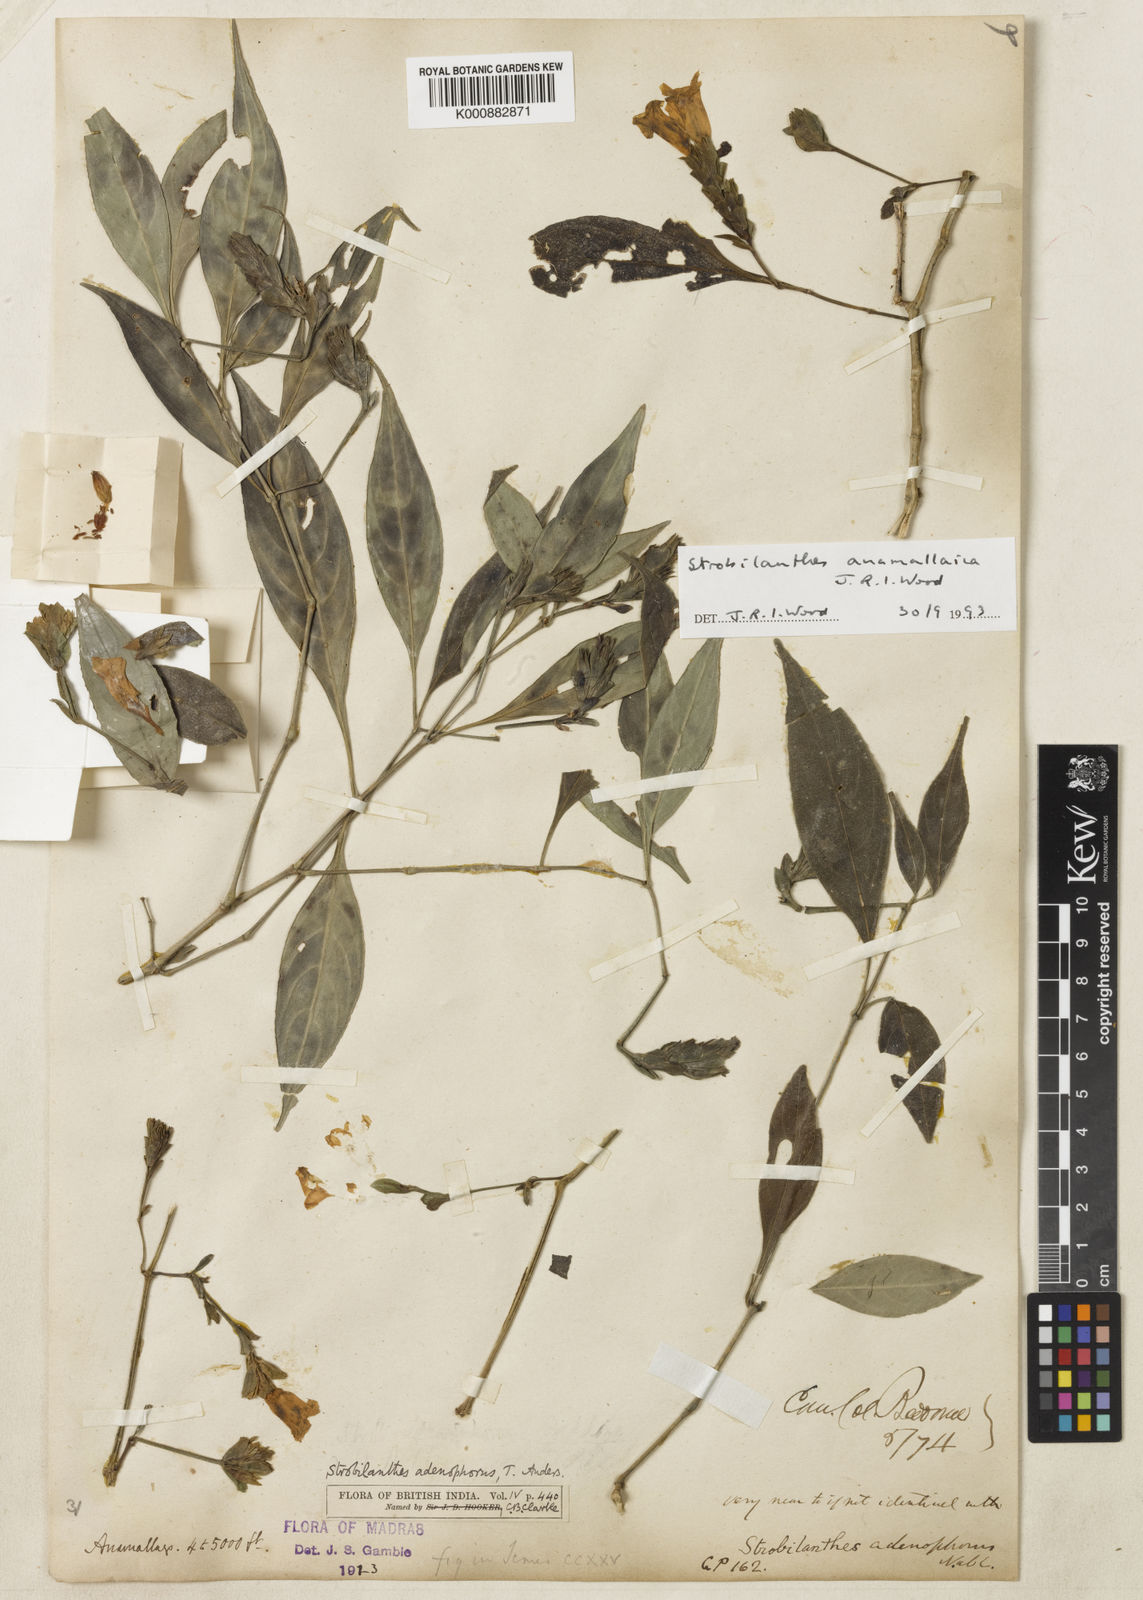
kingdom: Plantae
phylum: Tracheophyta
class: Magnoliopsida
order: Lamiales
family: Acanthaceae
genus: Strobilanthes
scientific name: Strobilanthes gracilis
